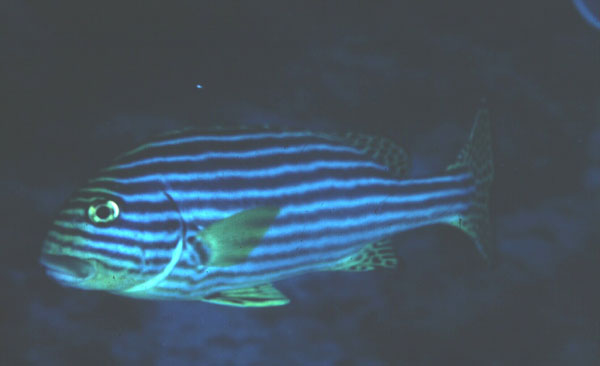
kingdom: Animalia
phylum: Chordata
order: Perciformes
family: Haemulidae
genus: Plectorhinchus
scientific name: Plectorhinchus vittatus
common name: Oriental sweetlips
